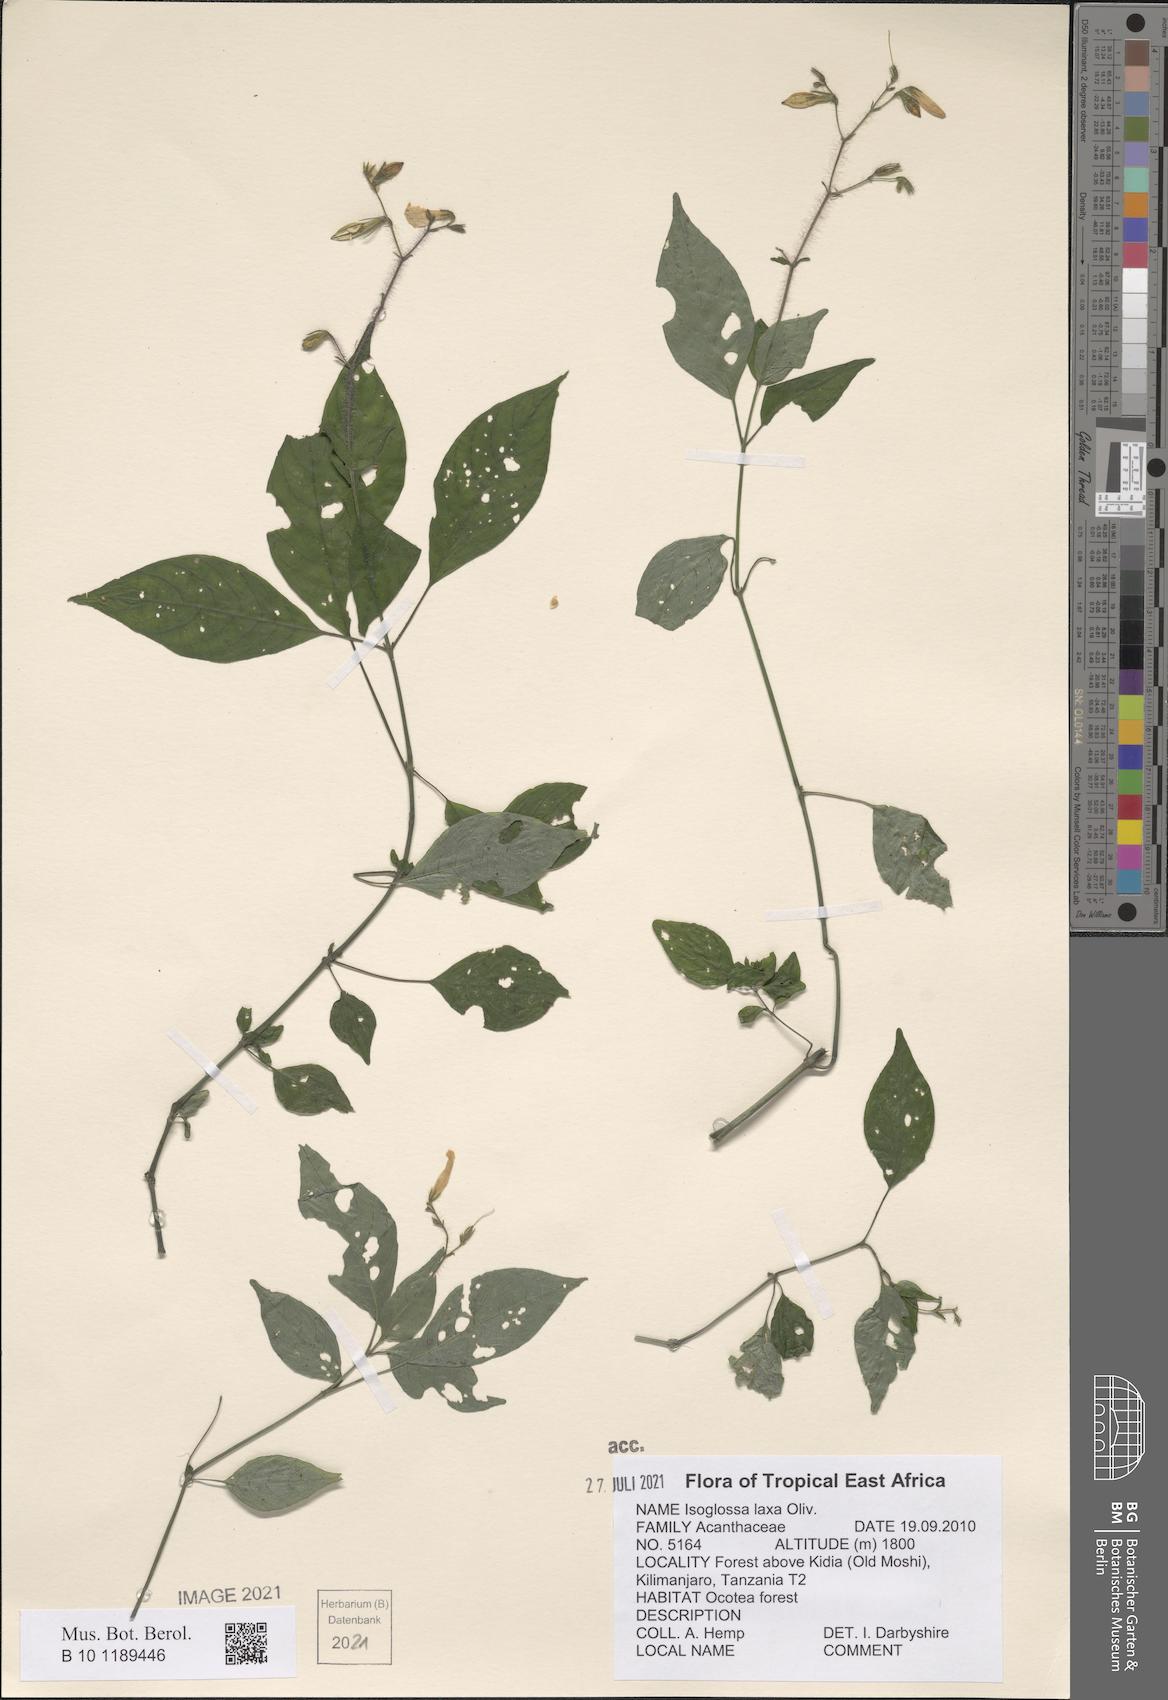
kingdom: Plantae
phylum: Tracheophyta
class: Magnoliopsida
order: Lamiales
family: Acanthaceae
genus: Isoglossa
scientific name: Isoglossa laxa
